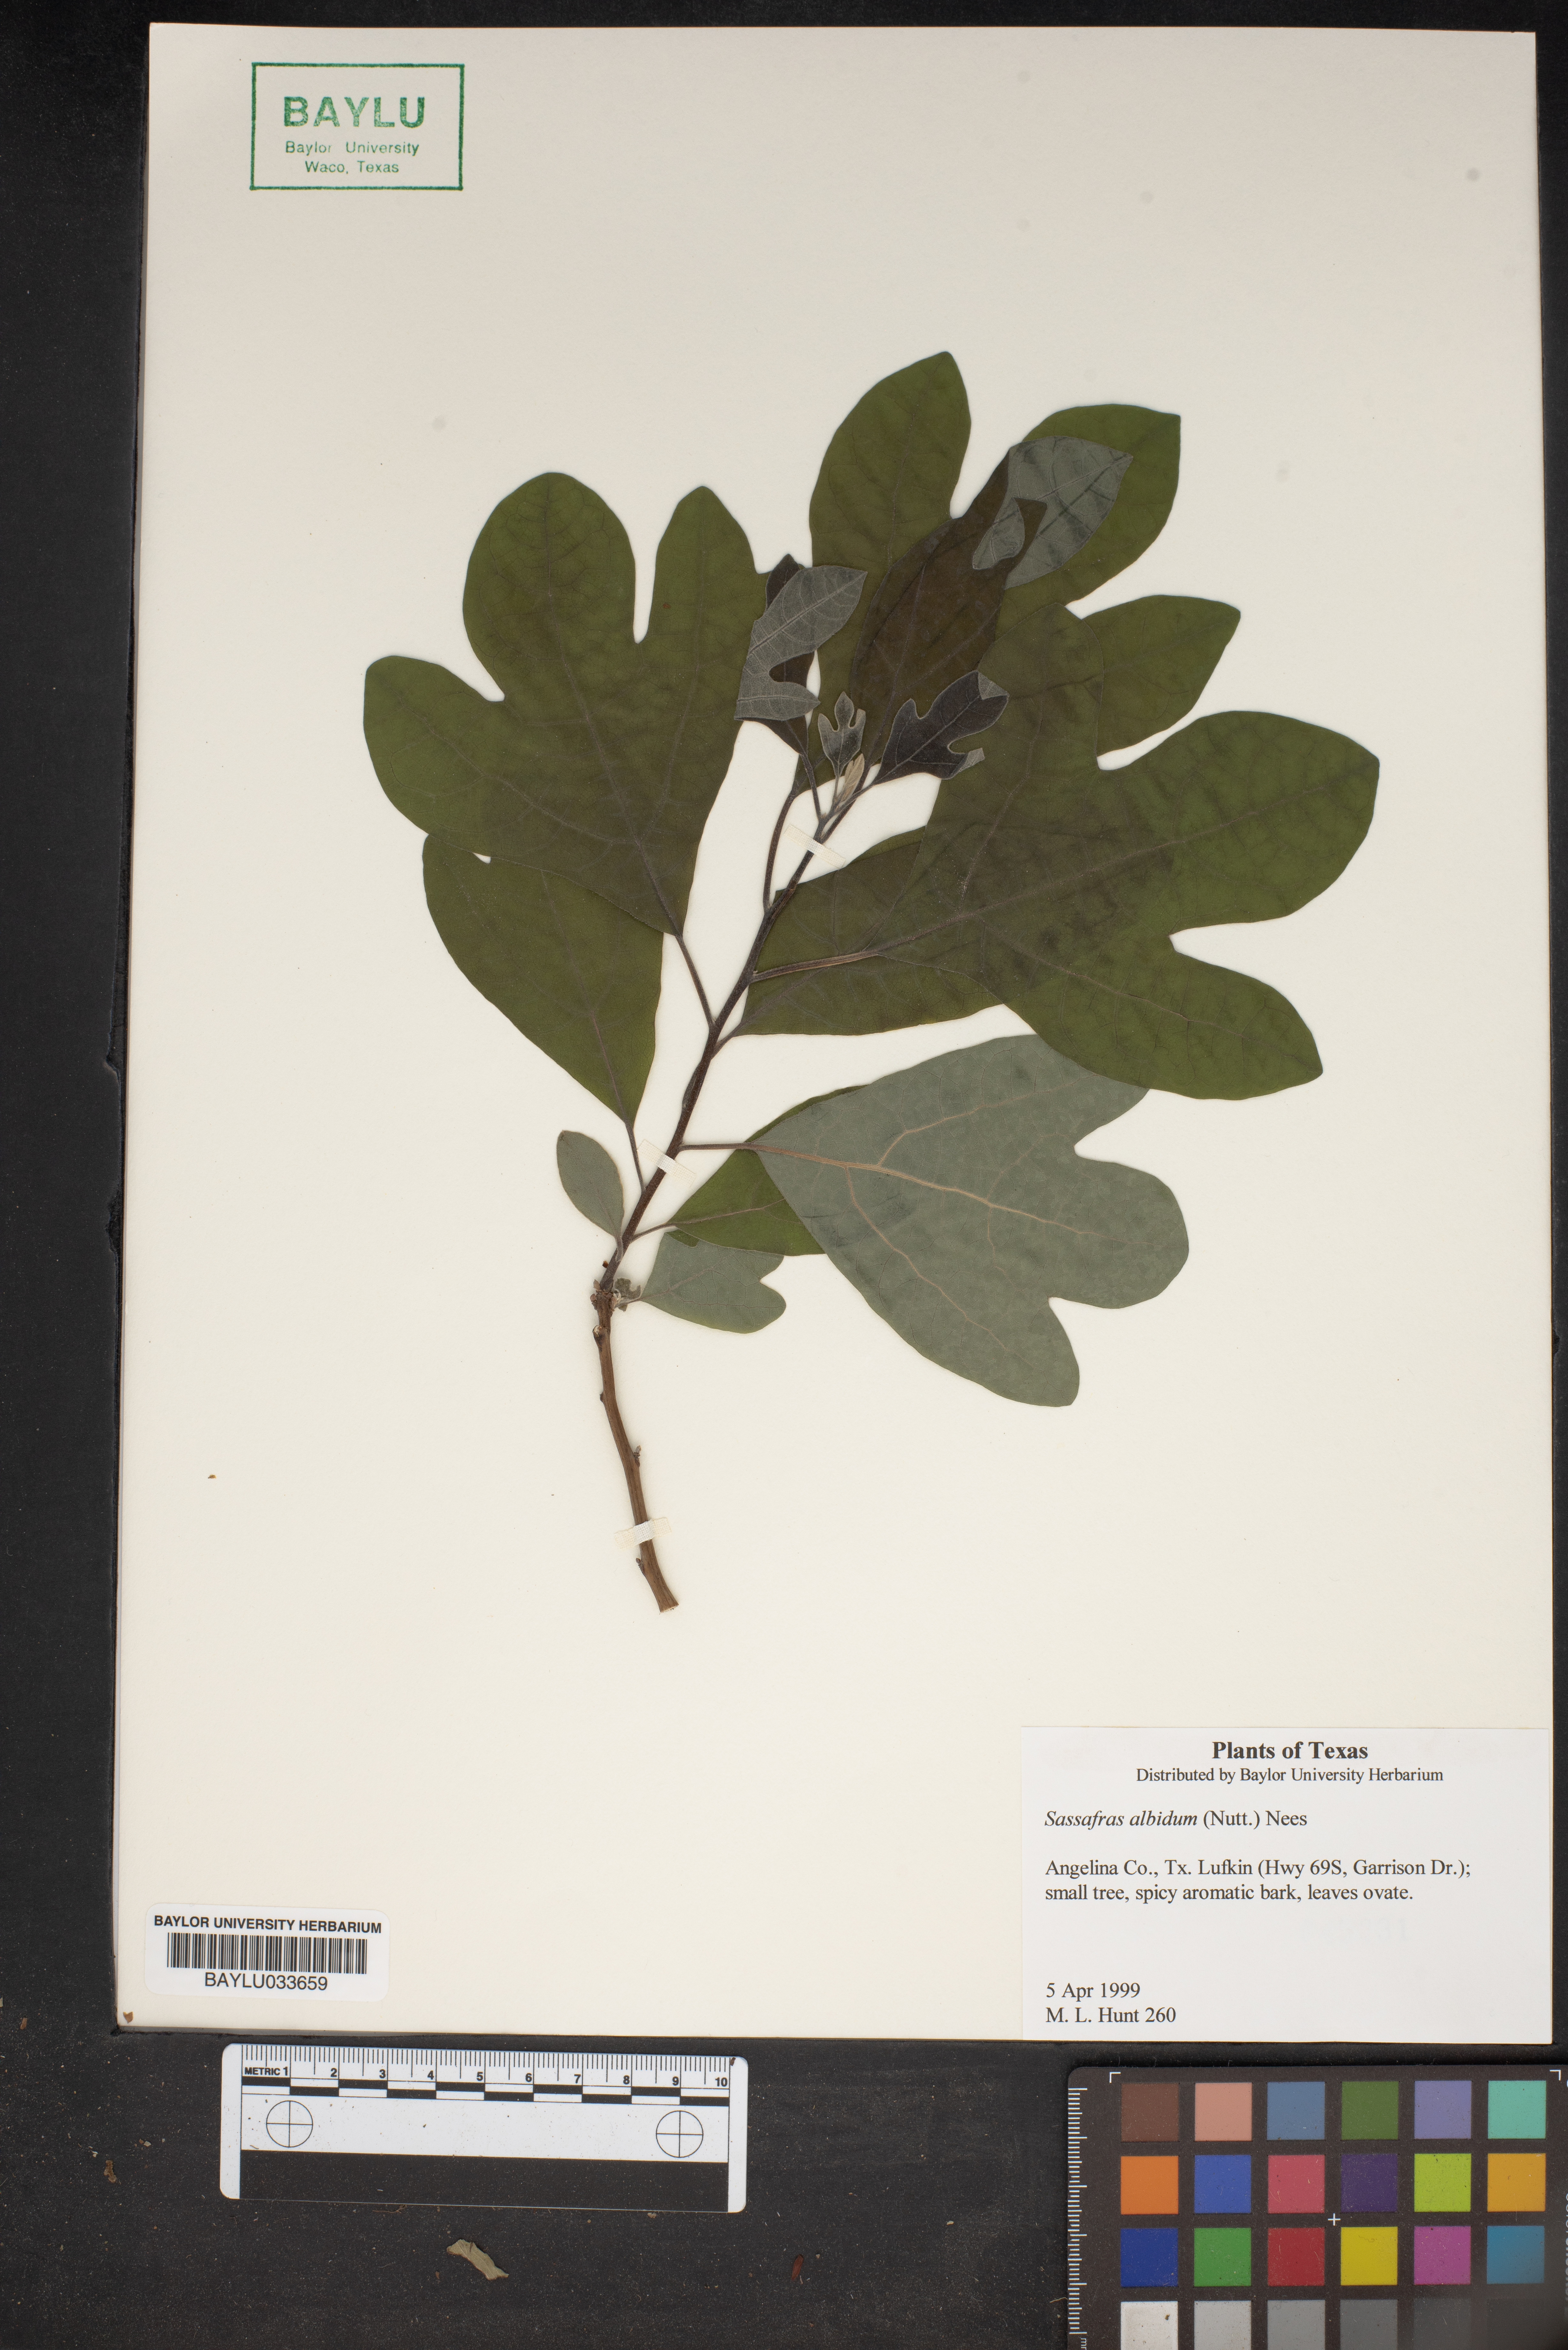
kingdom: Plantae
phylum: Tracheophyta
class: Magnoliopsida
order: Laurales
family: Lauraceae
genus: Sassafras
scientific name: Sassafras albidum
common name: Sassafras
